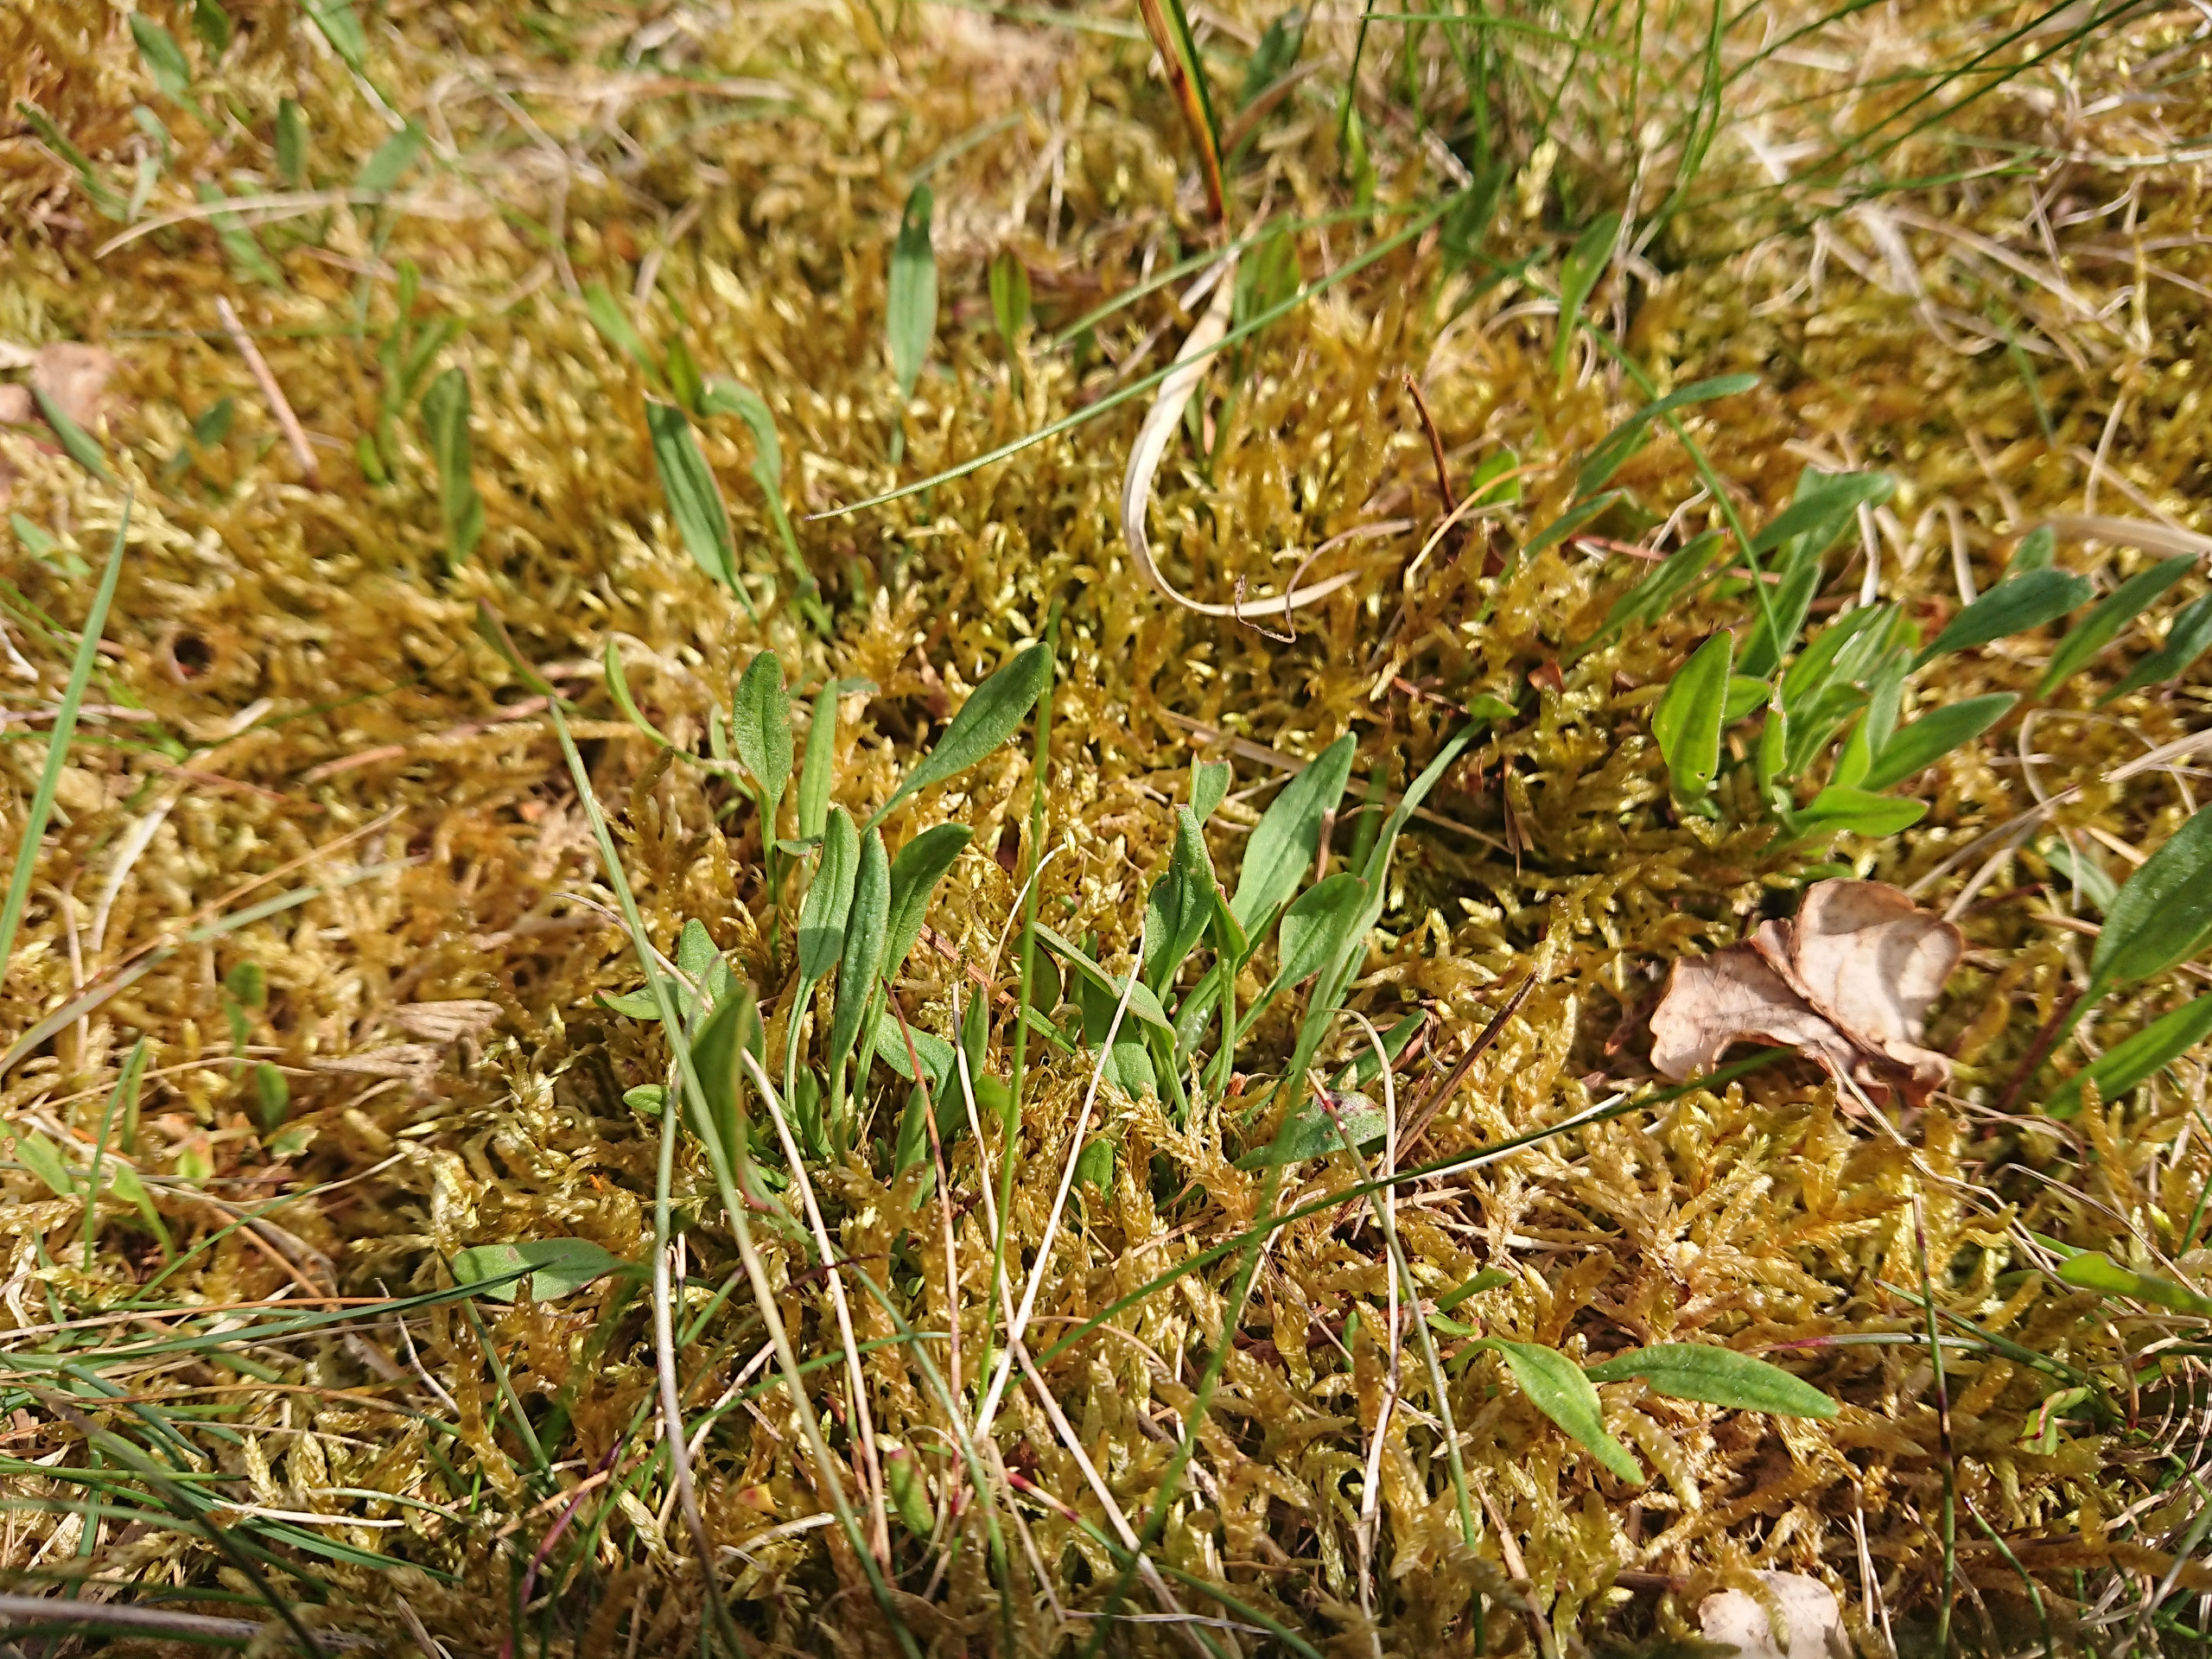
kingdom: Plantae
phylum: Tracheophyta
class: Magnoliopsida
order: Caryophyllales
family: Polygonaceae
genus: Rumex
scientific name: Rumex acetosella
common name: Rødknæ
